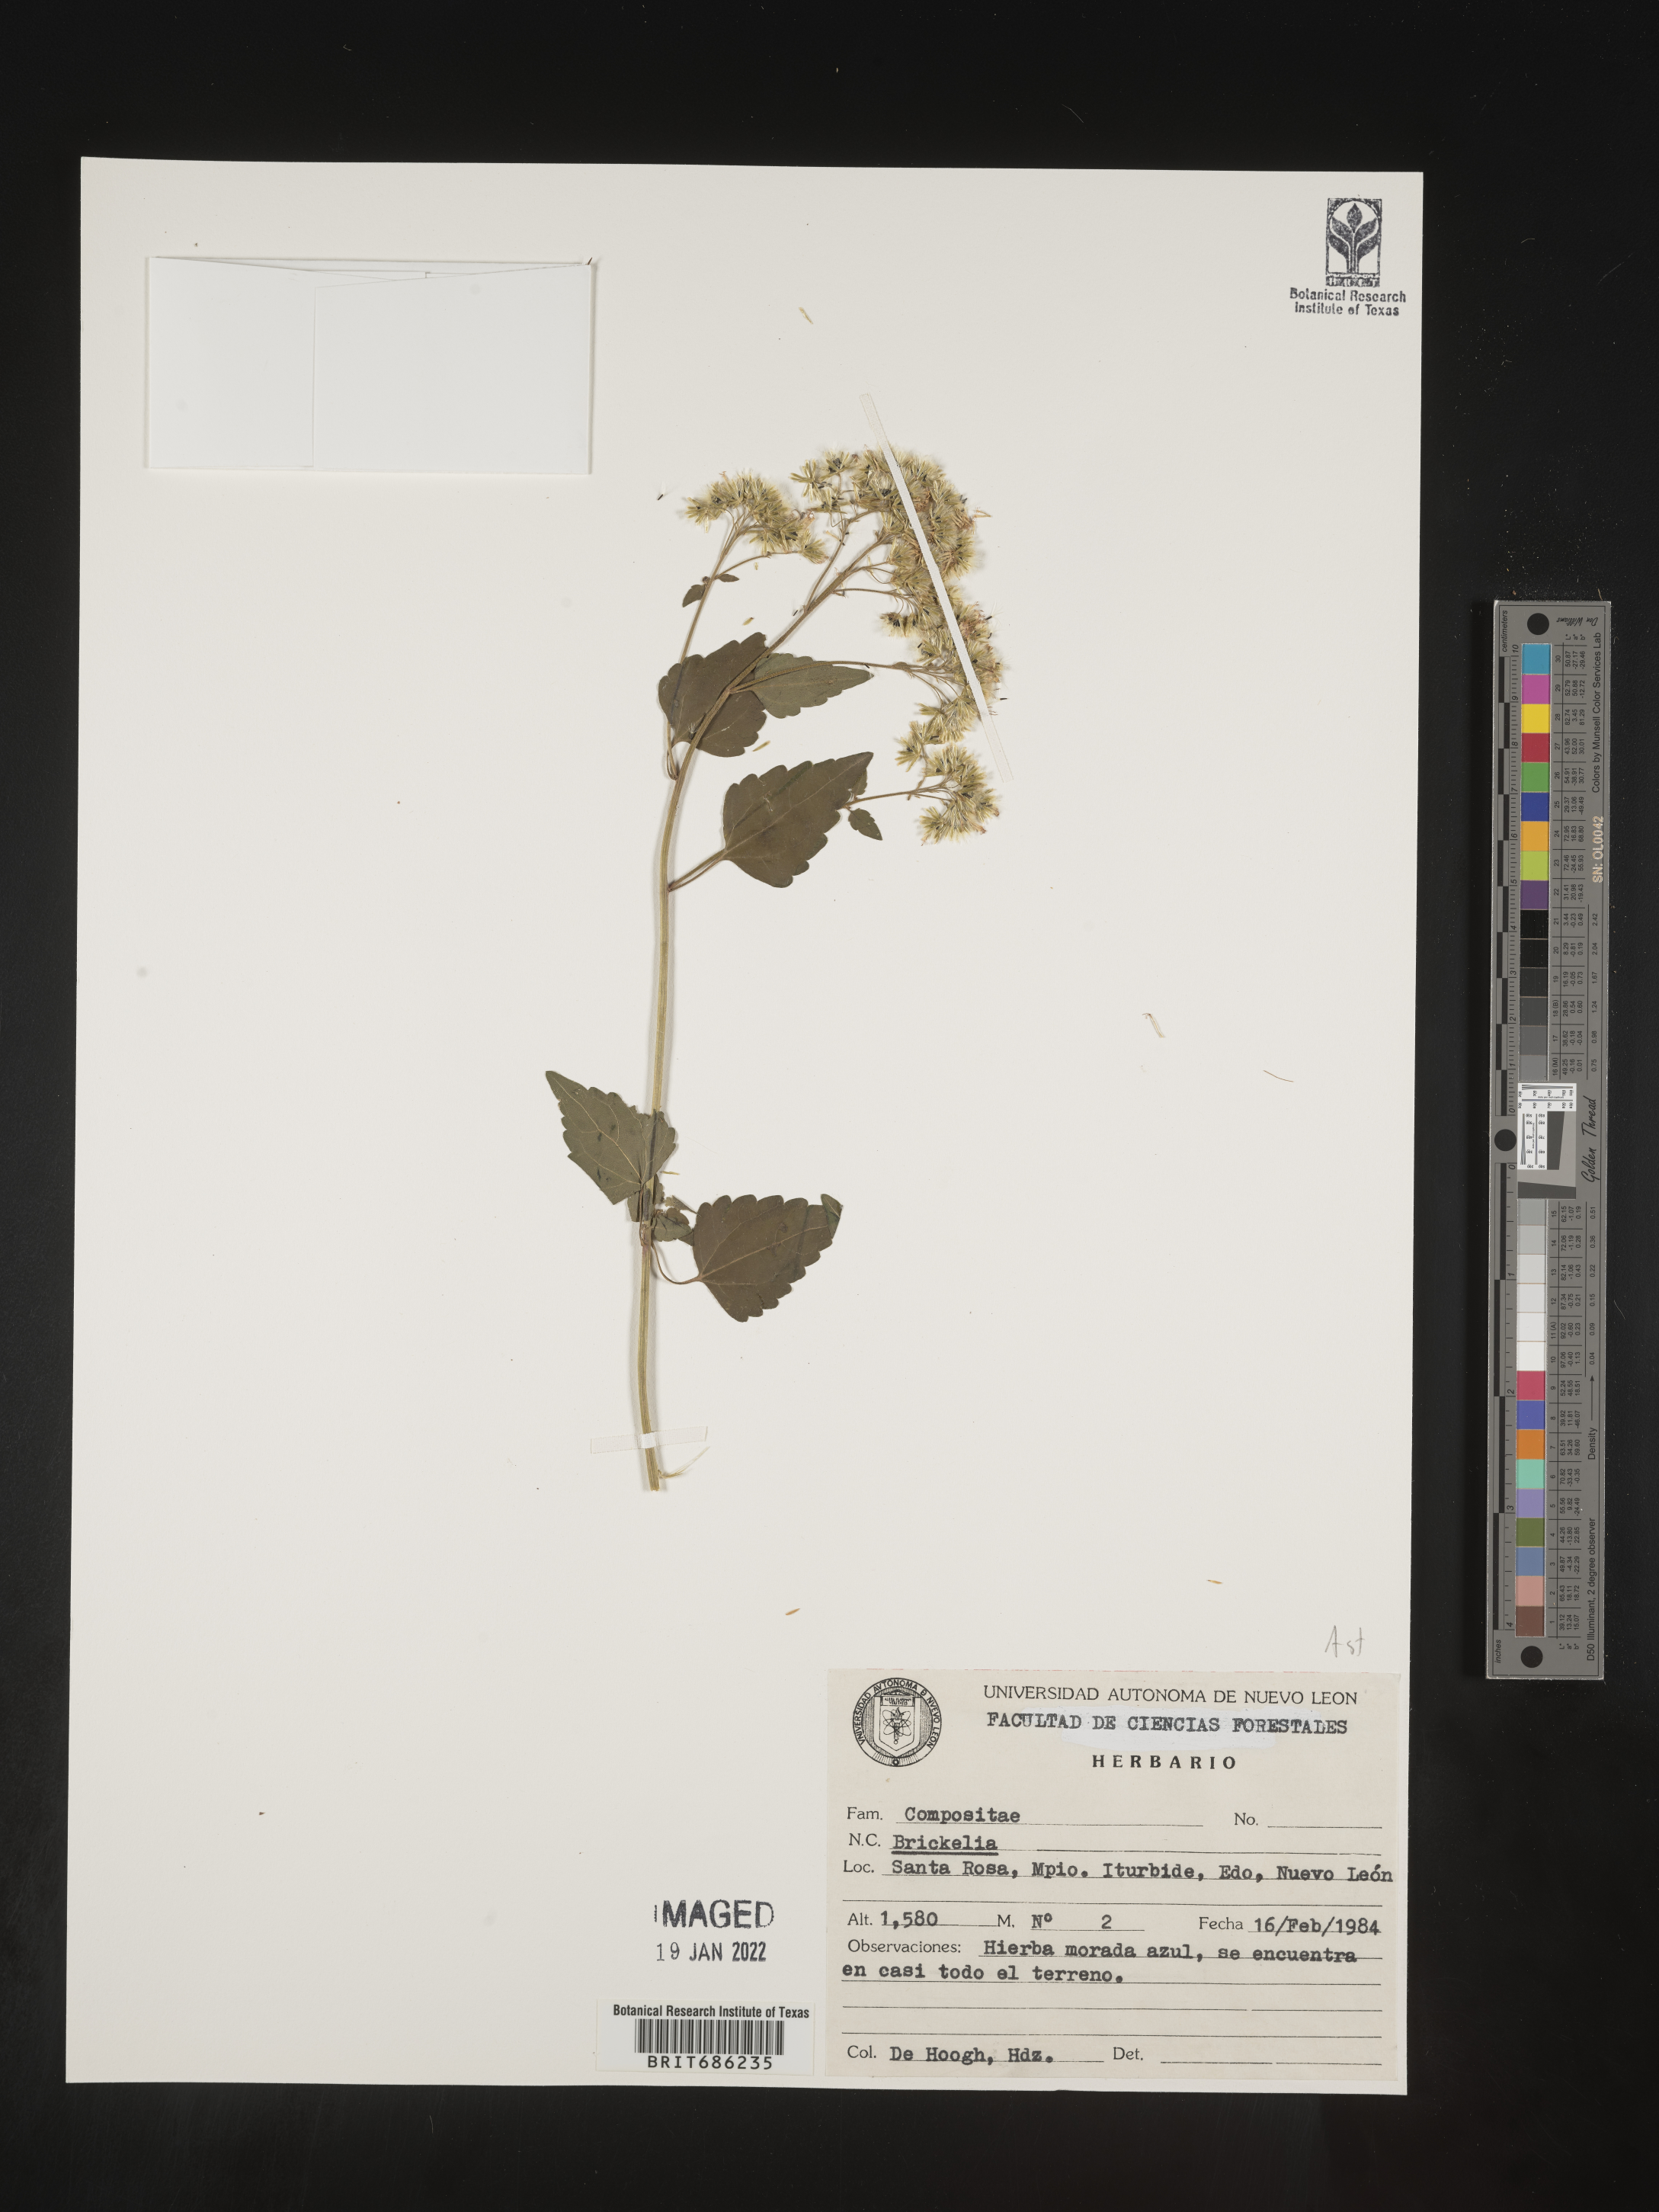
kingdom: Plantae
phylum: Tracheophyta
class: Magnoliopsida
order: Asterales
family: Asteraceae
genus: Brickellia
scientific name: Brickellia
